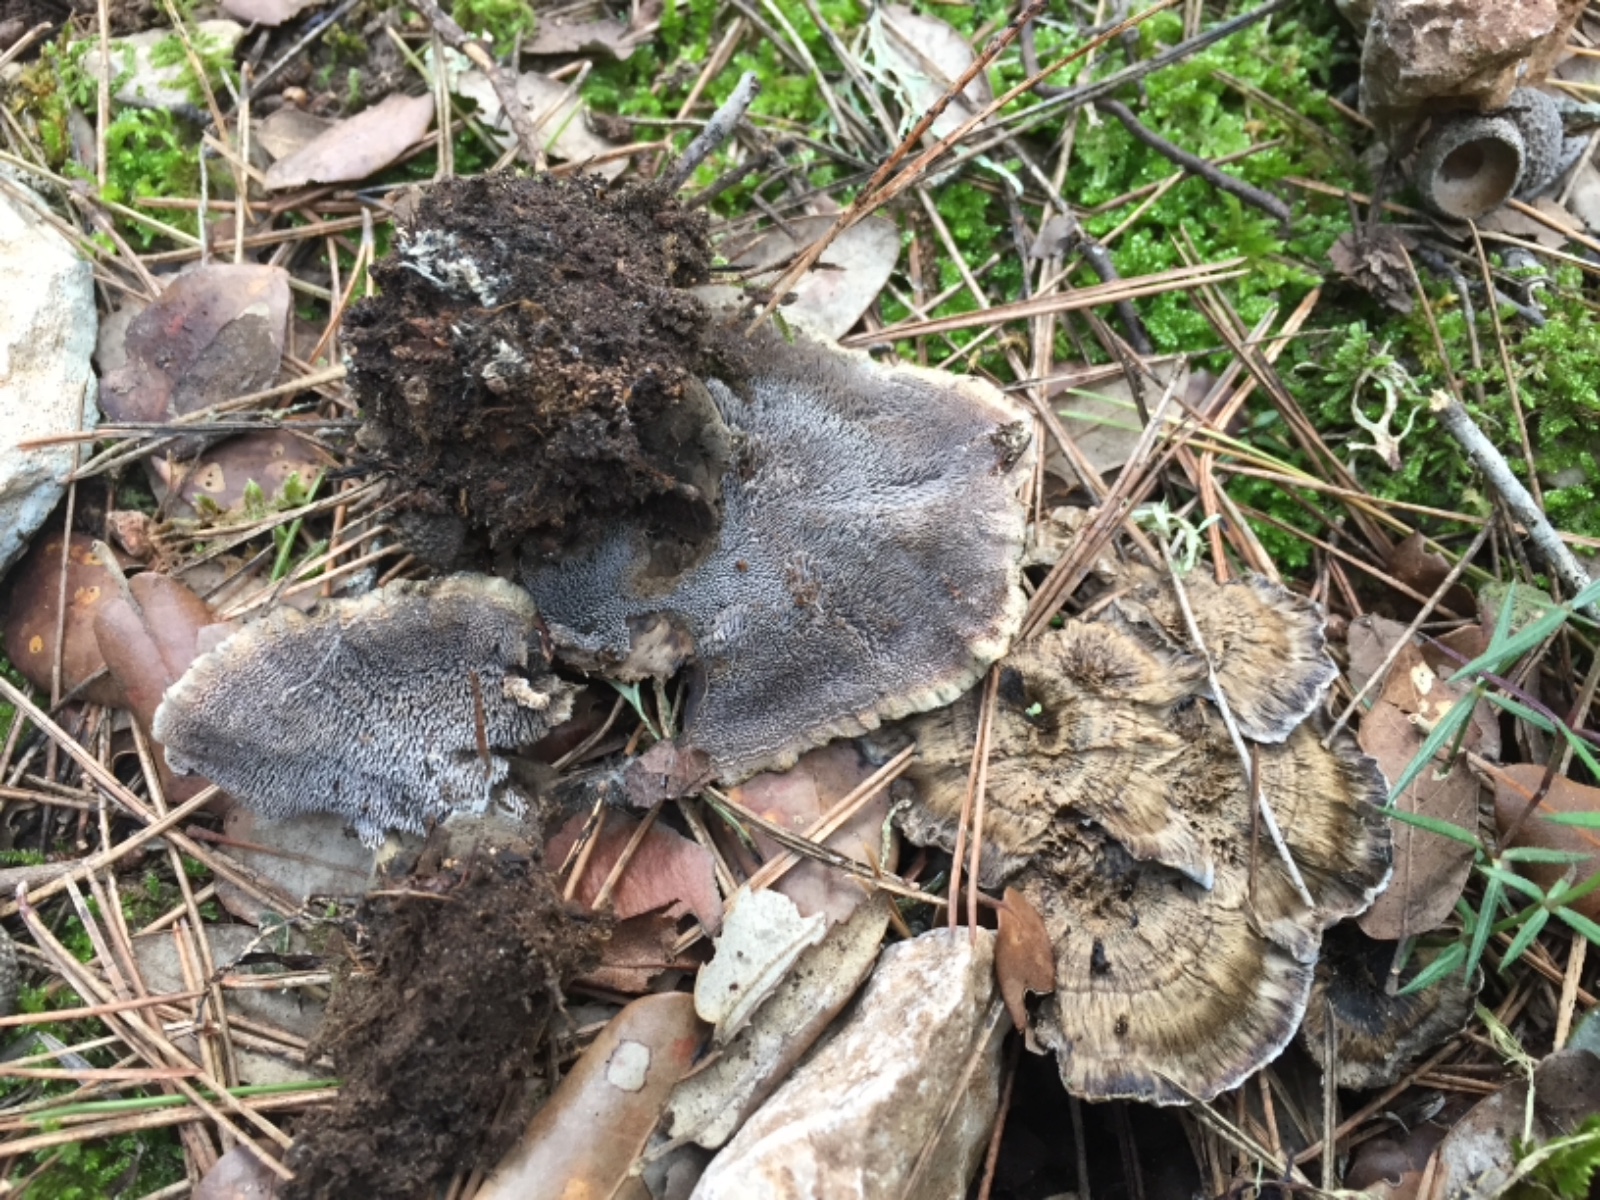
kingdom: Fungi
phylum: Basidiomycota
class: Agaricomycetes
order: Thelephorales
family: Thelephoraceae
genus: Phellodon
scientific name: Phellodon
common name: mørk duftpigsvamp
